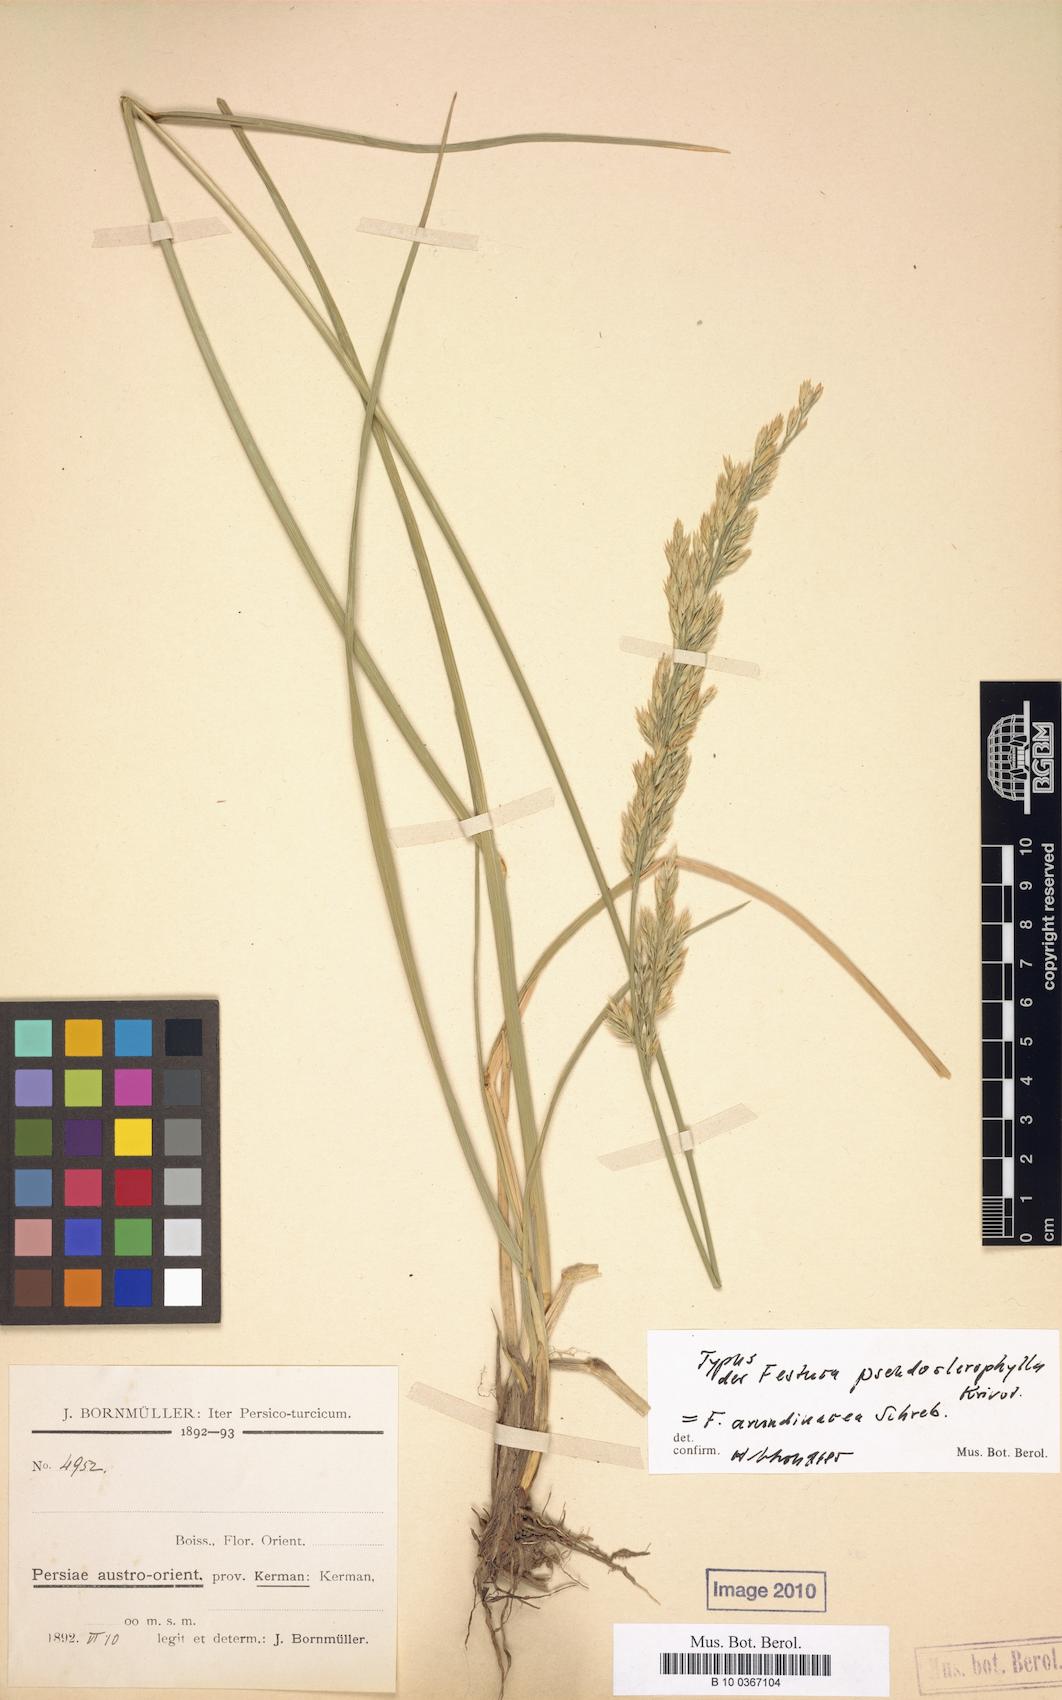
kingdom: Plantae
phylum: Tracheophyta
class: Liliopsida
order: Poales
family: Poaceae
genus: Festuca
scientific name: Festuca pseudosclerophylla
